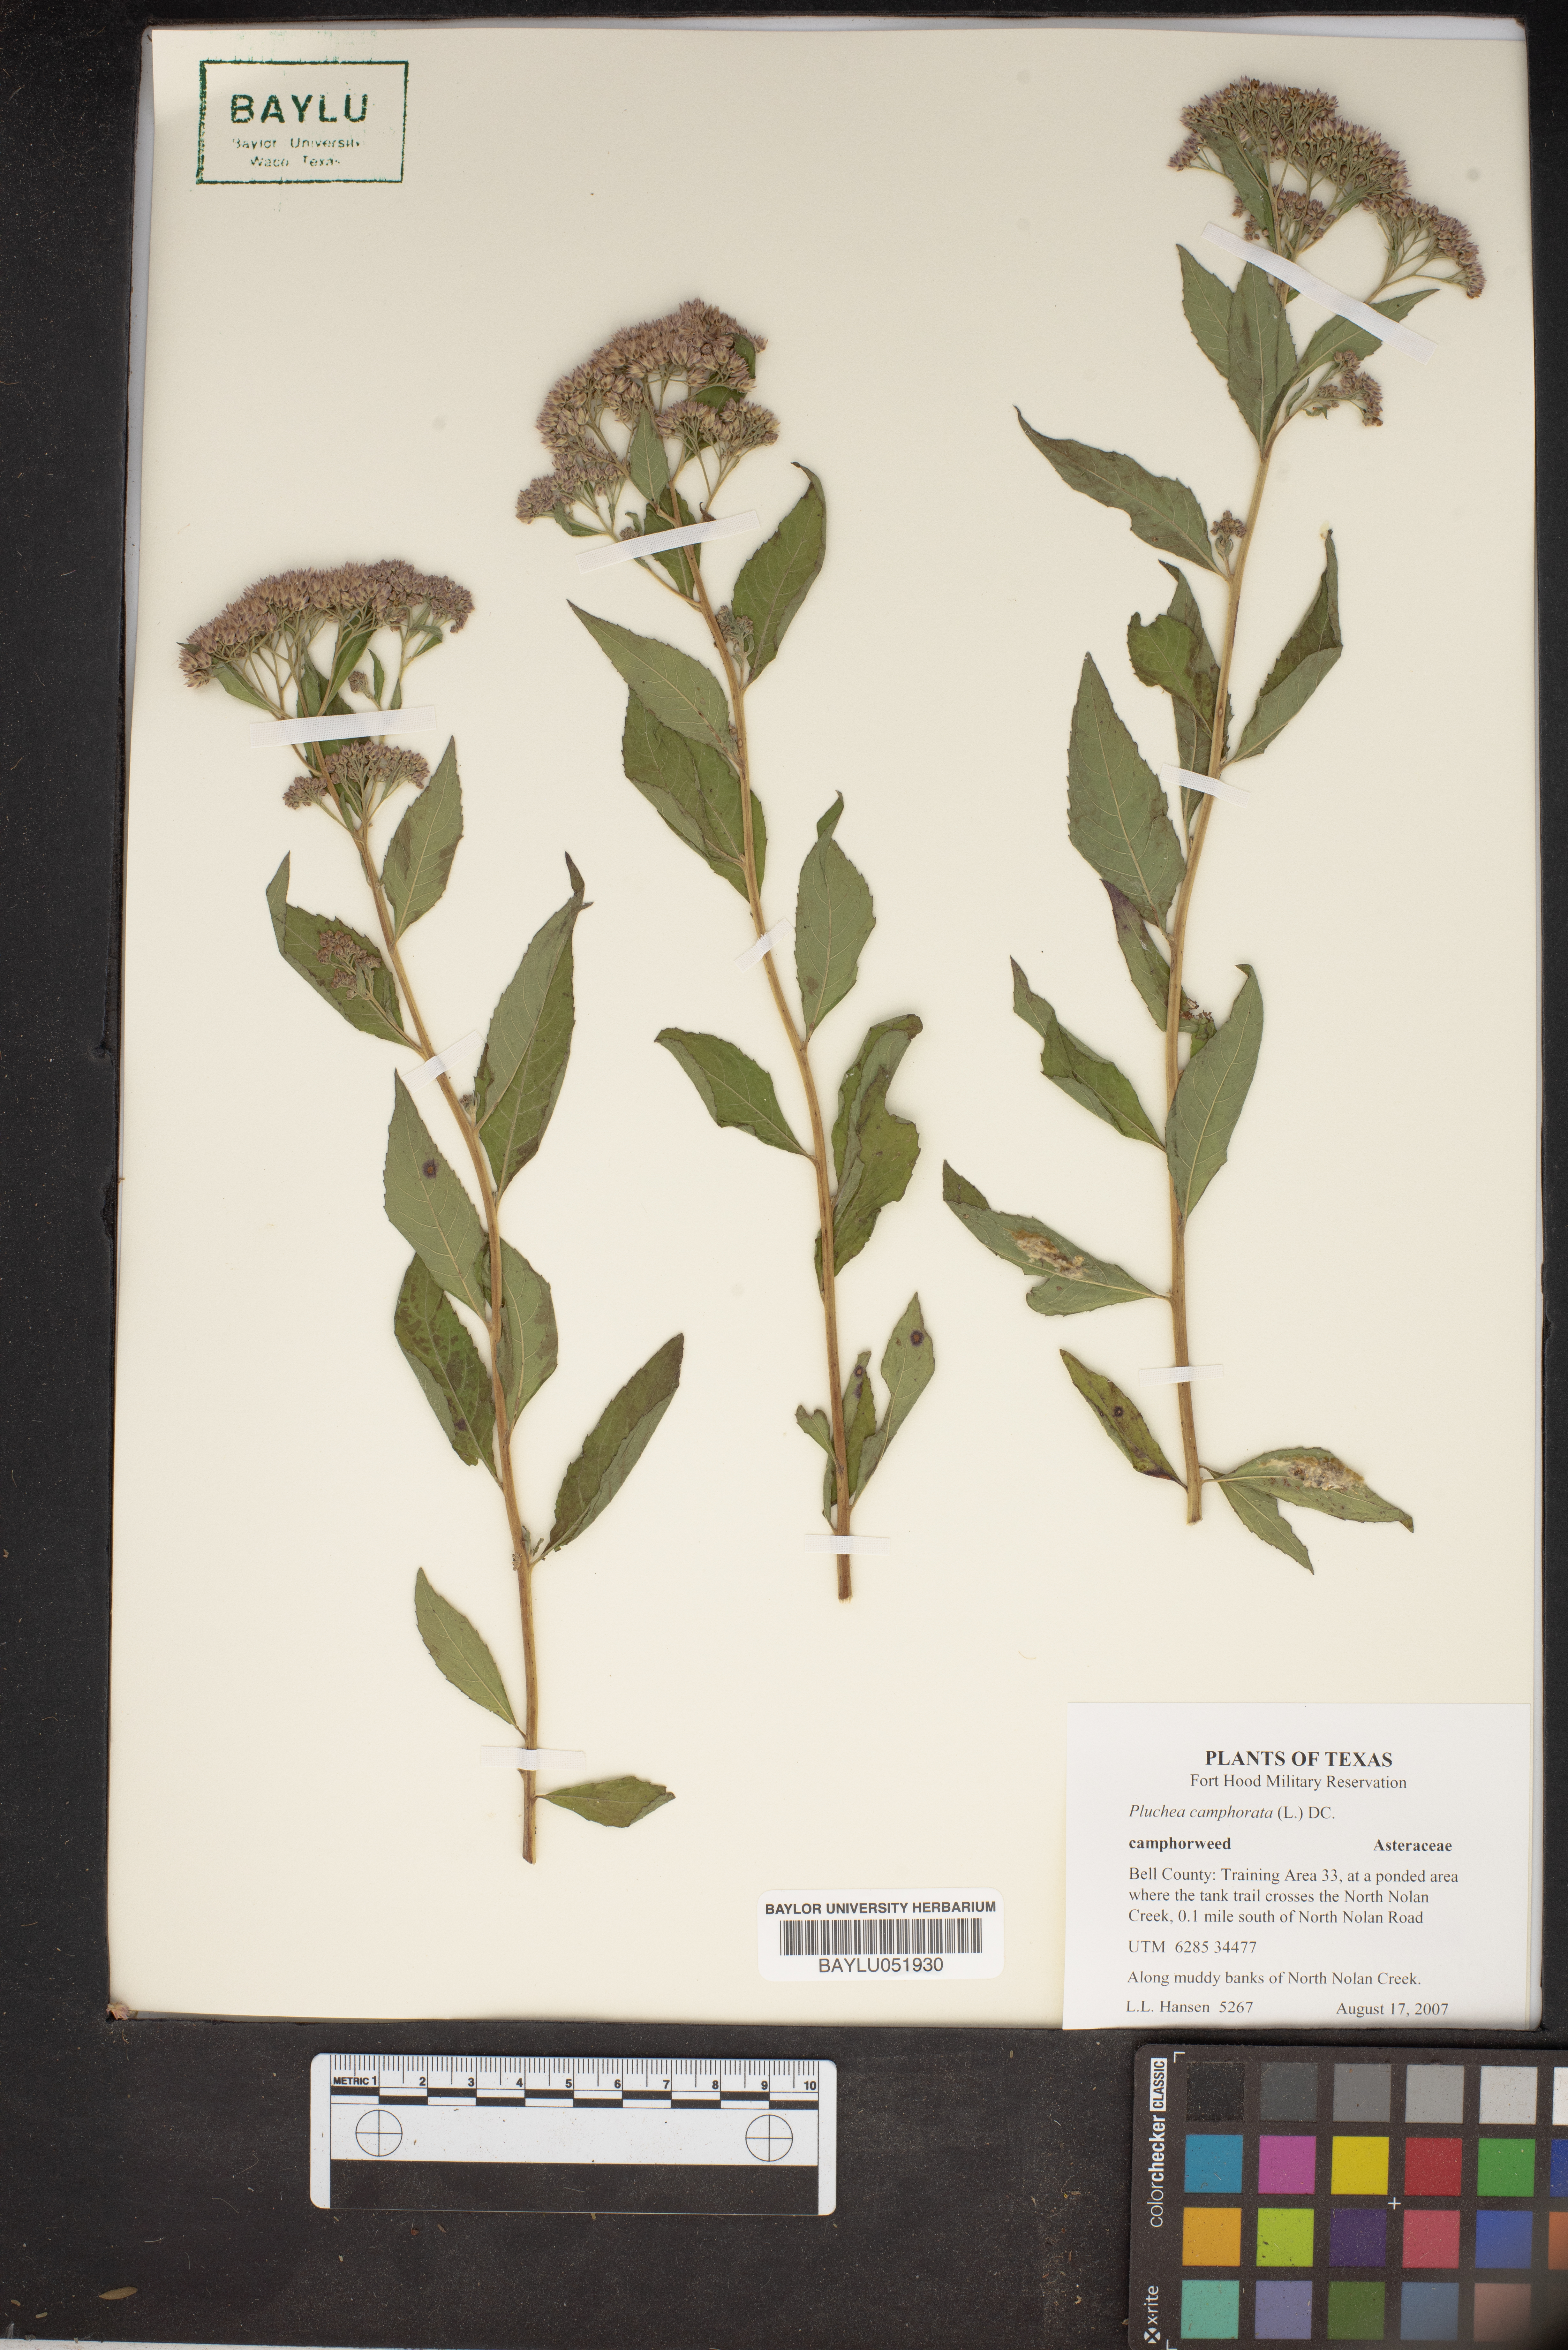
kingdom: Plantae
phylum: Tracheophyta
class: Magnoliopsida
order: Asterales
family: Asteraceae
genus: Pluchea
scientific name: Pluchea camphorata
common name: Camphor pluchea
